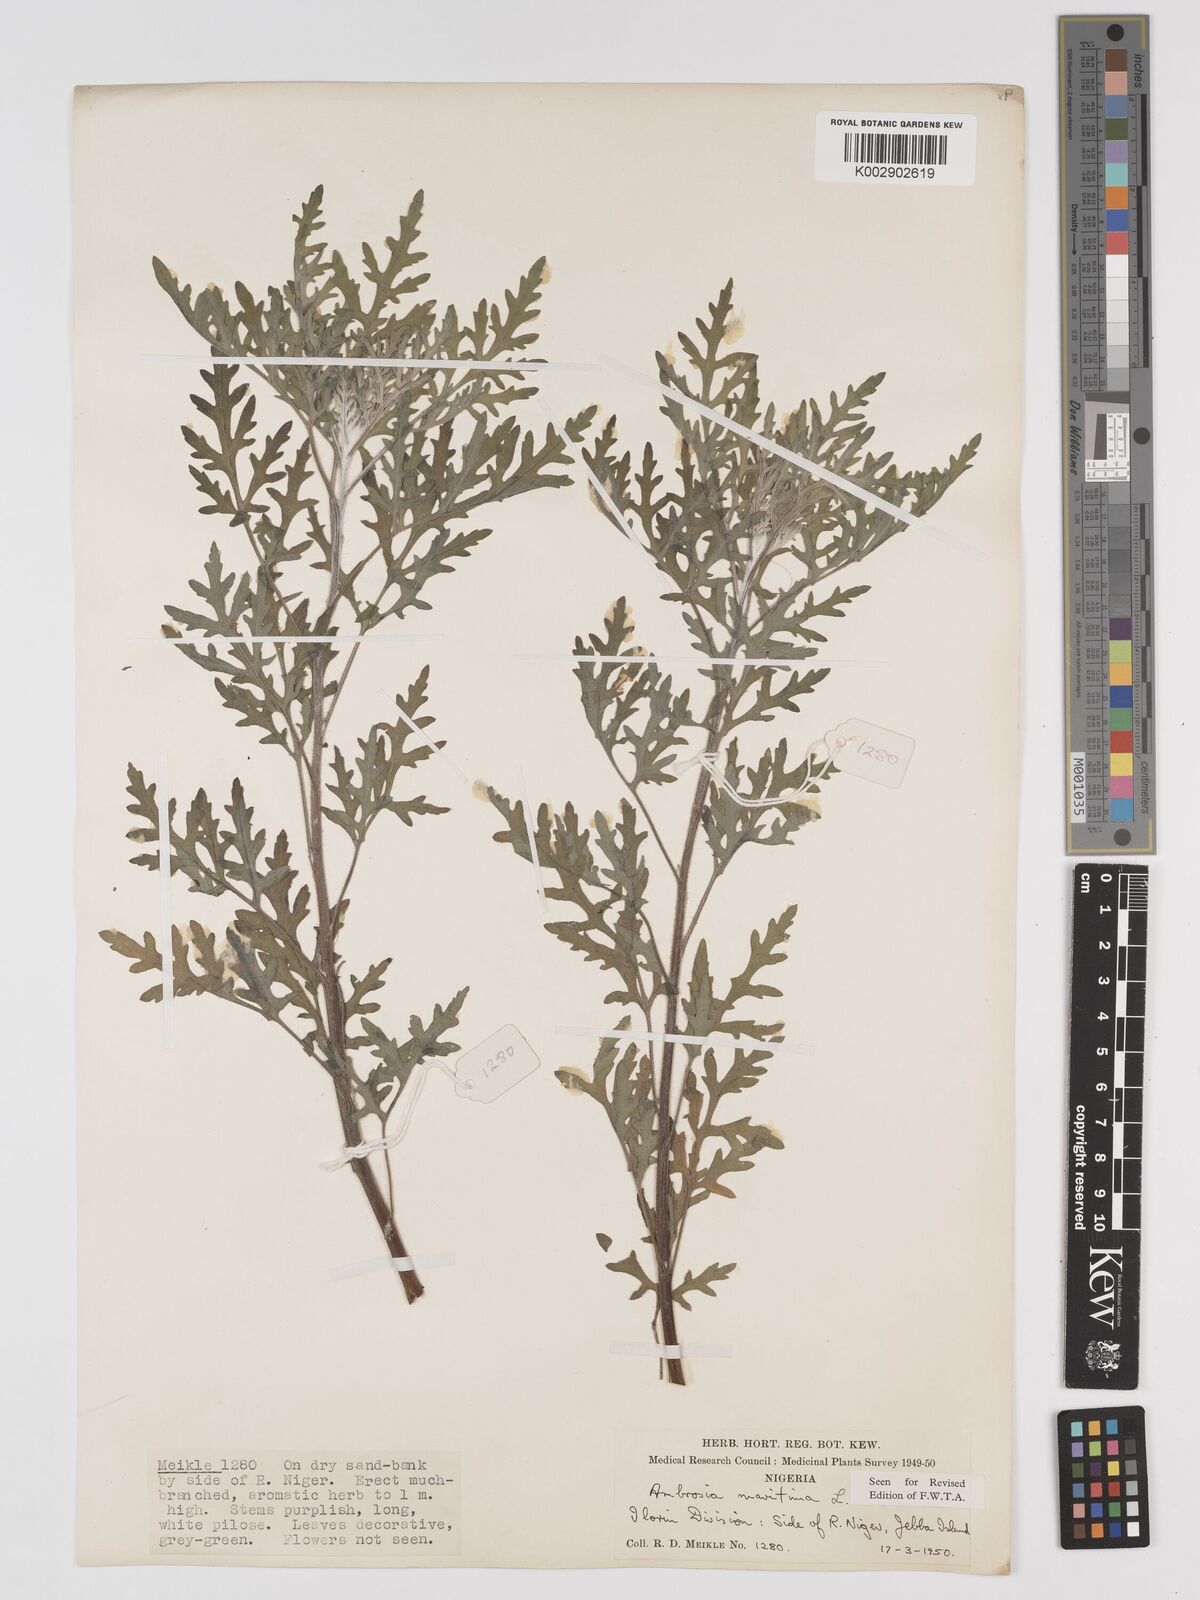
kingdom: Plantae
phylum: Tracheophyta
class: Magnoliopsida
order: Asterales
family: Asteraceae
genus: Ambrosia
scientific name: Ambrosia maritima
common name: Sea ambrosia
